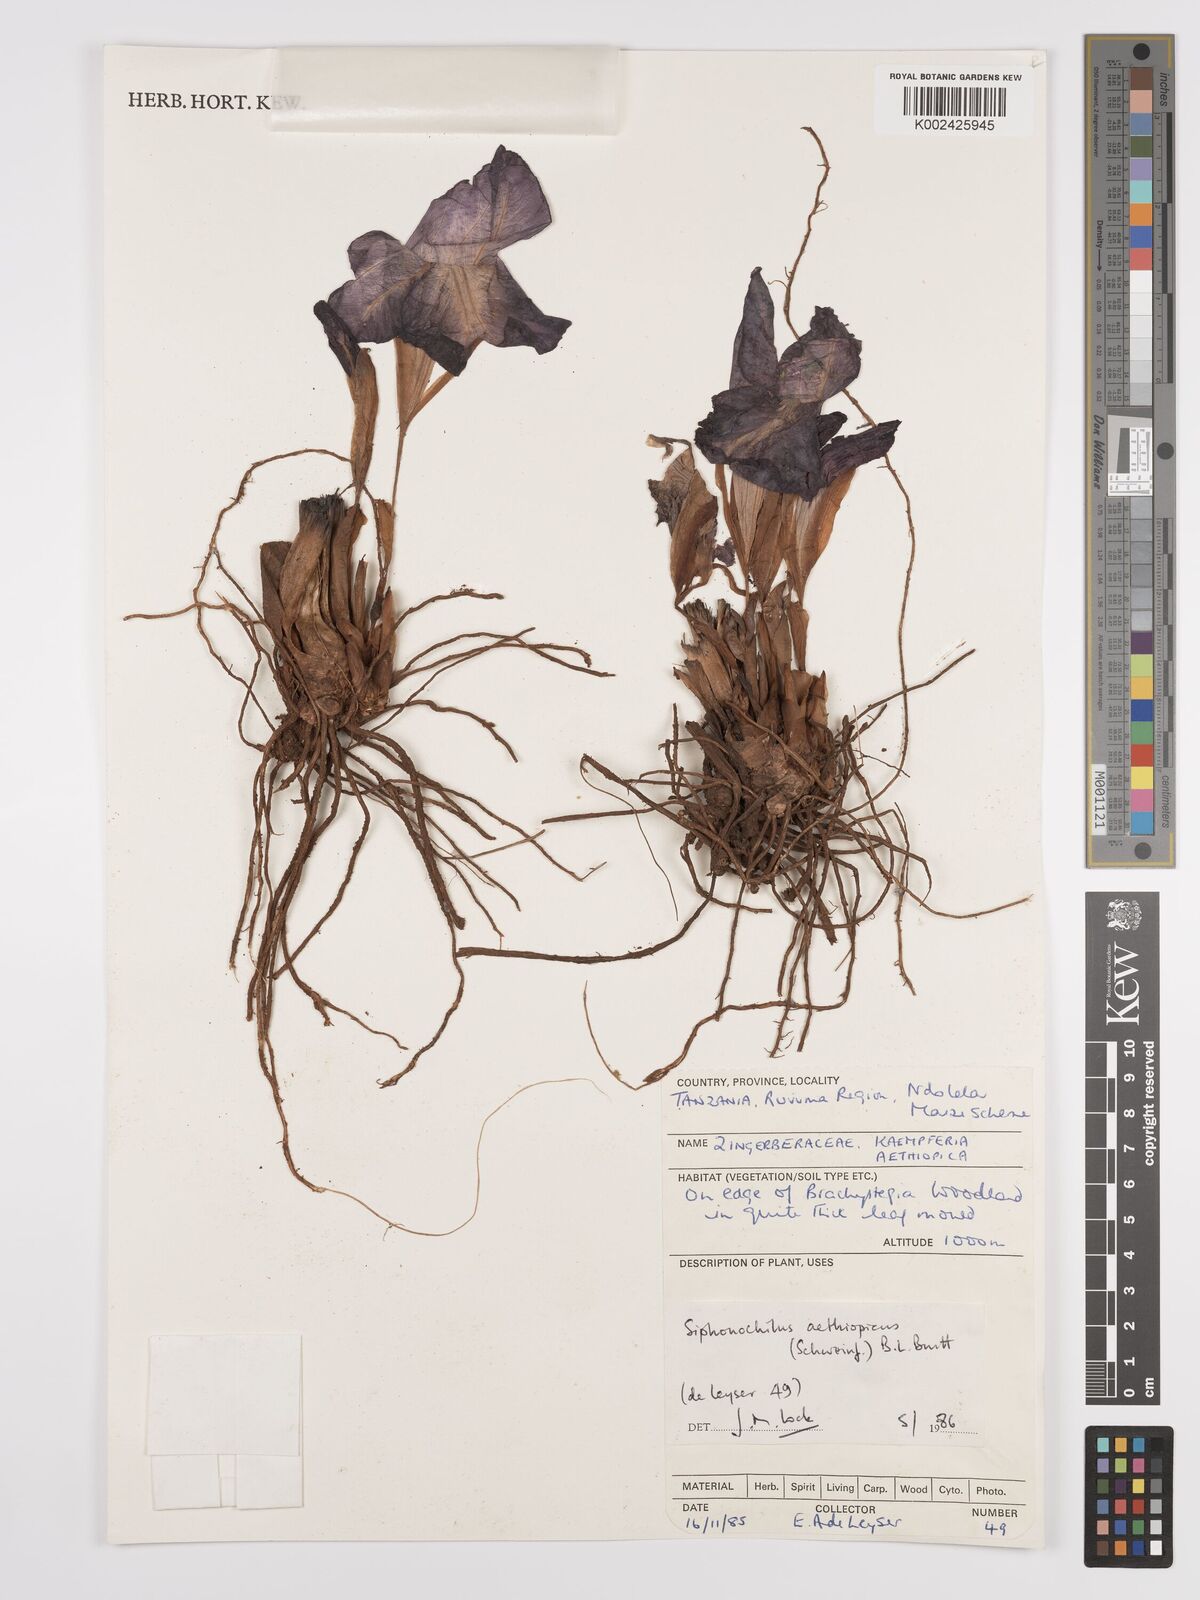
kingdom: Plantae
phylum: Tracheophyta
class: Liliopsida
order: Zingiberales
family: Zingiberaceae
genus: Siphonochilus
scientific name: Siphonochilus aethiopicus
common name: African-ginger
